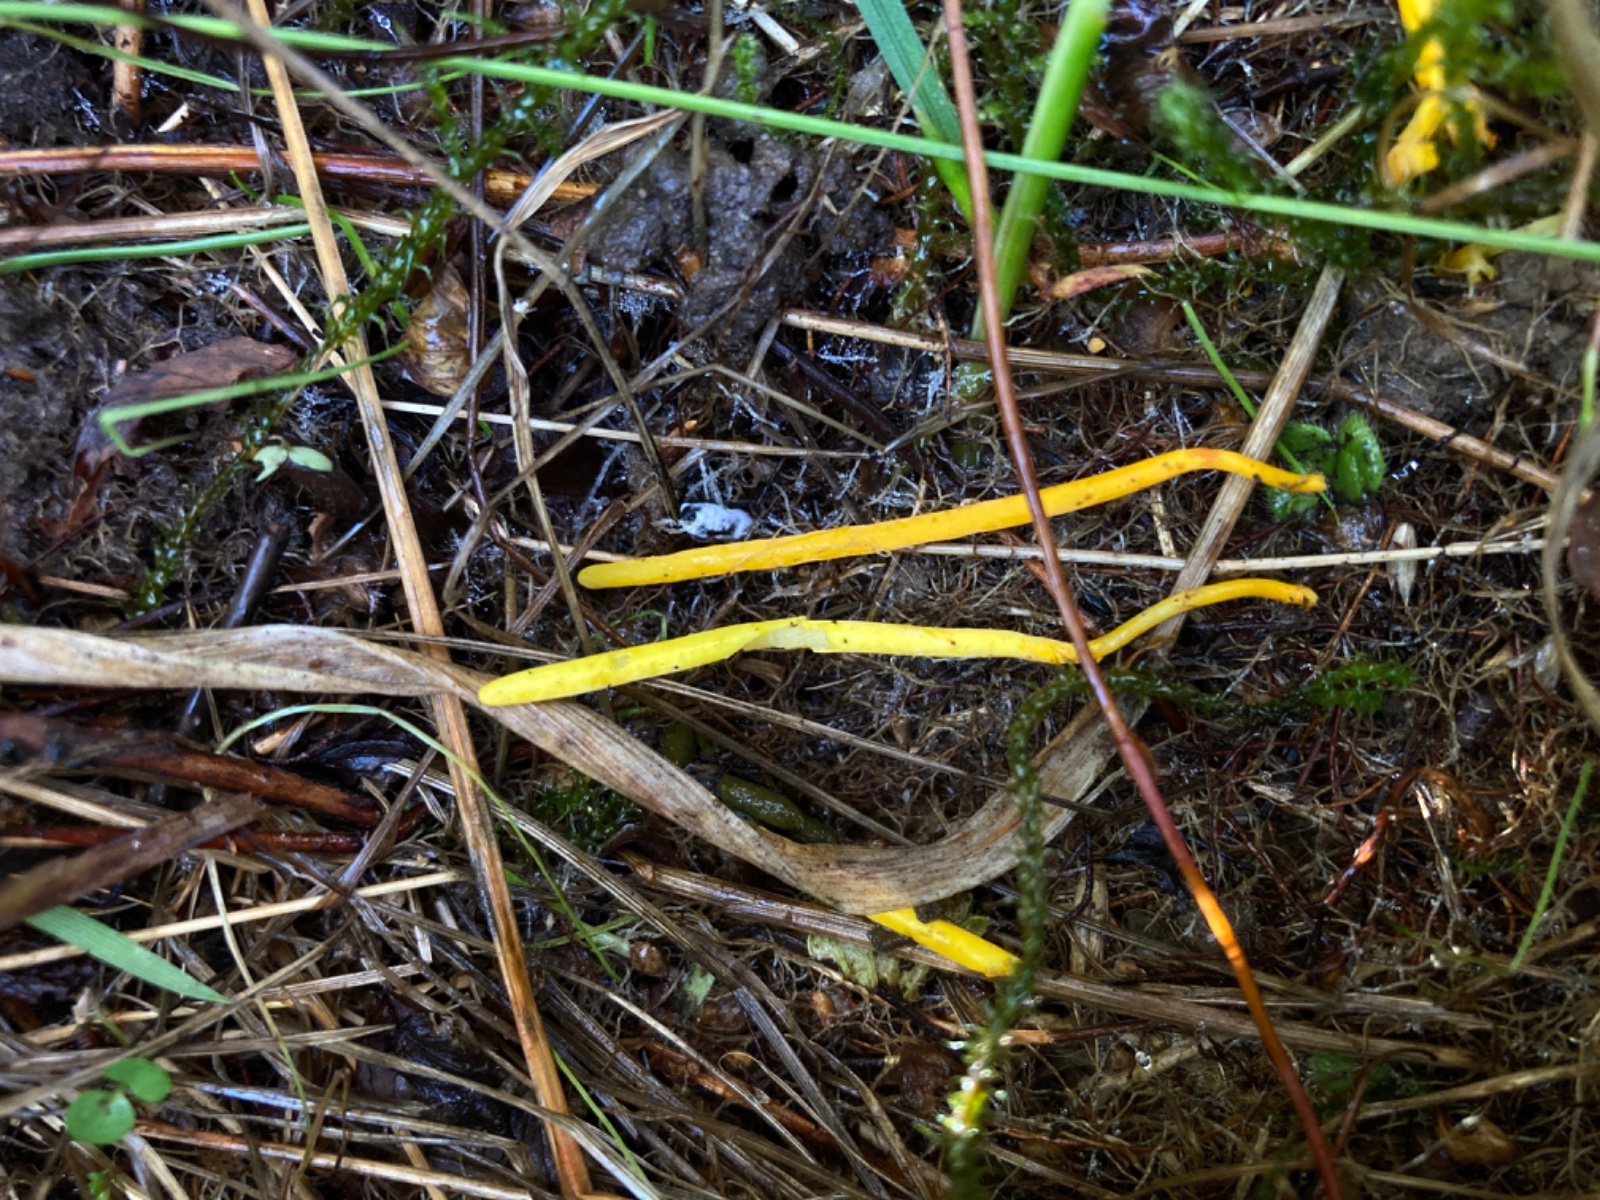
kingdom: Fungi
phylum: Basidiomycota
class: Agaricomycetes
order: Agaricales
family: Clavariaceae
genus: Clavulinopsis
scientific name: Clavulinopsis laeticolor
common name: flamme-køllesvamp
